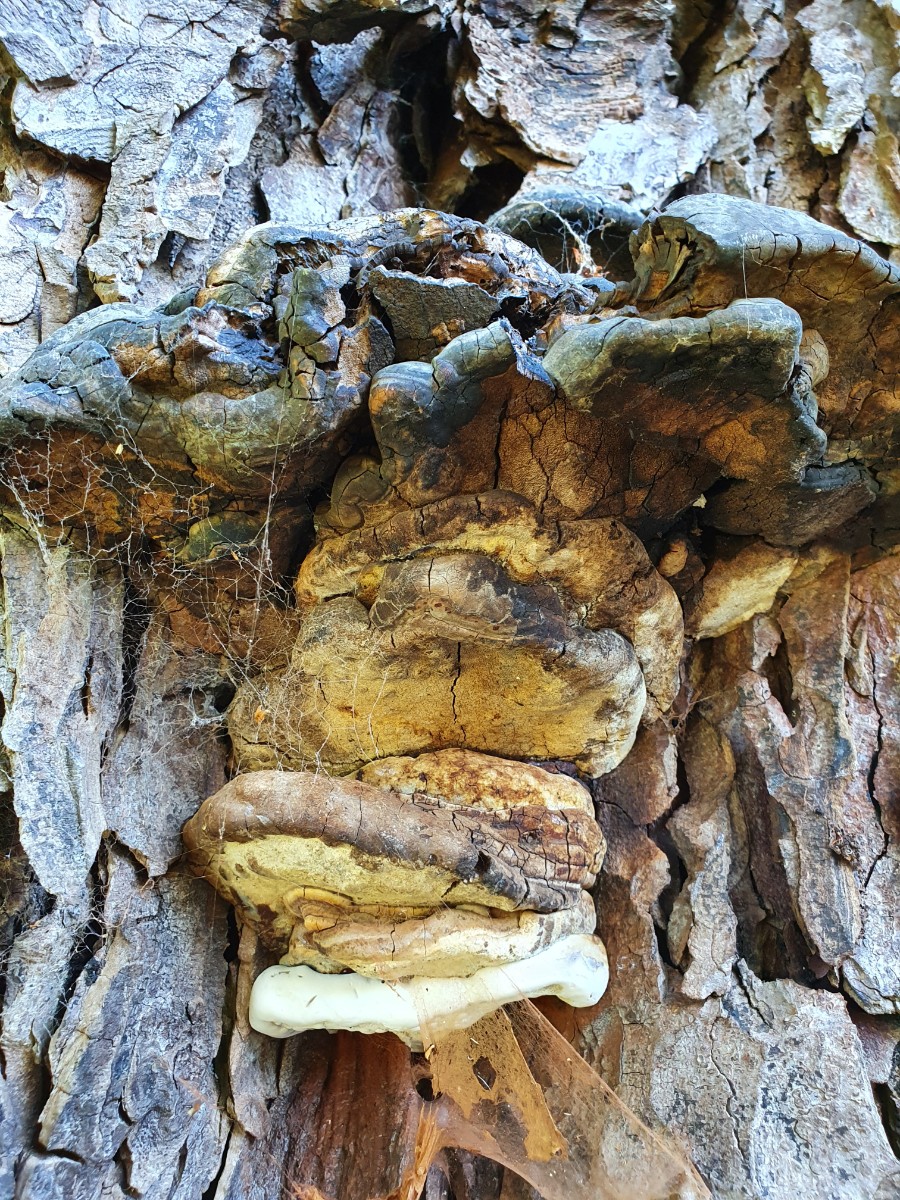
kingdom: Fungi
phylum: Basidiomycota
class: Agaricomycetes
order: Polyporales
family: Polyporaceae
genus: Ganoderma
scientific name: Ganoderma adspersum
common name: grov lakporesvamp
